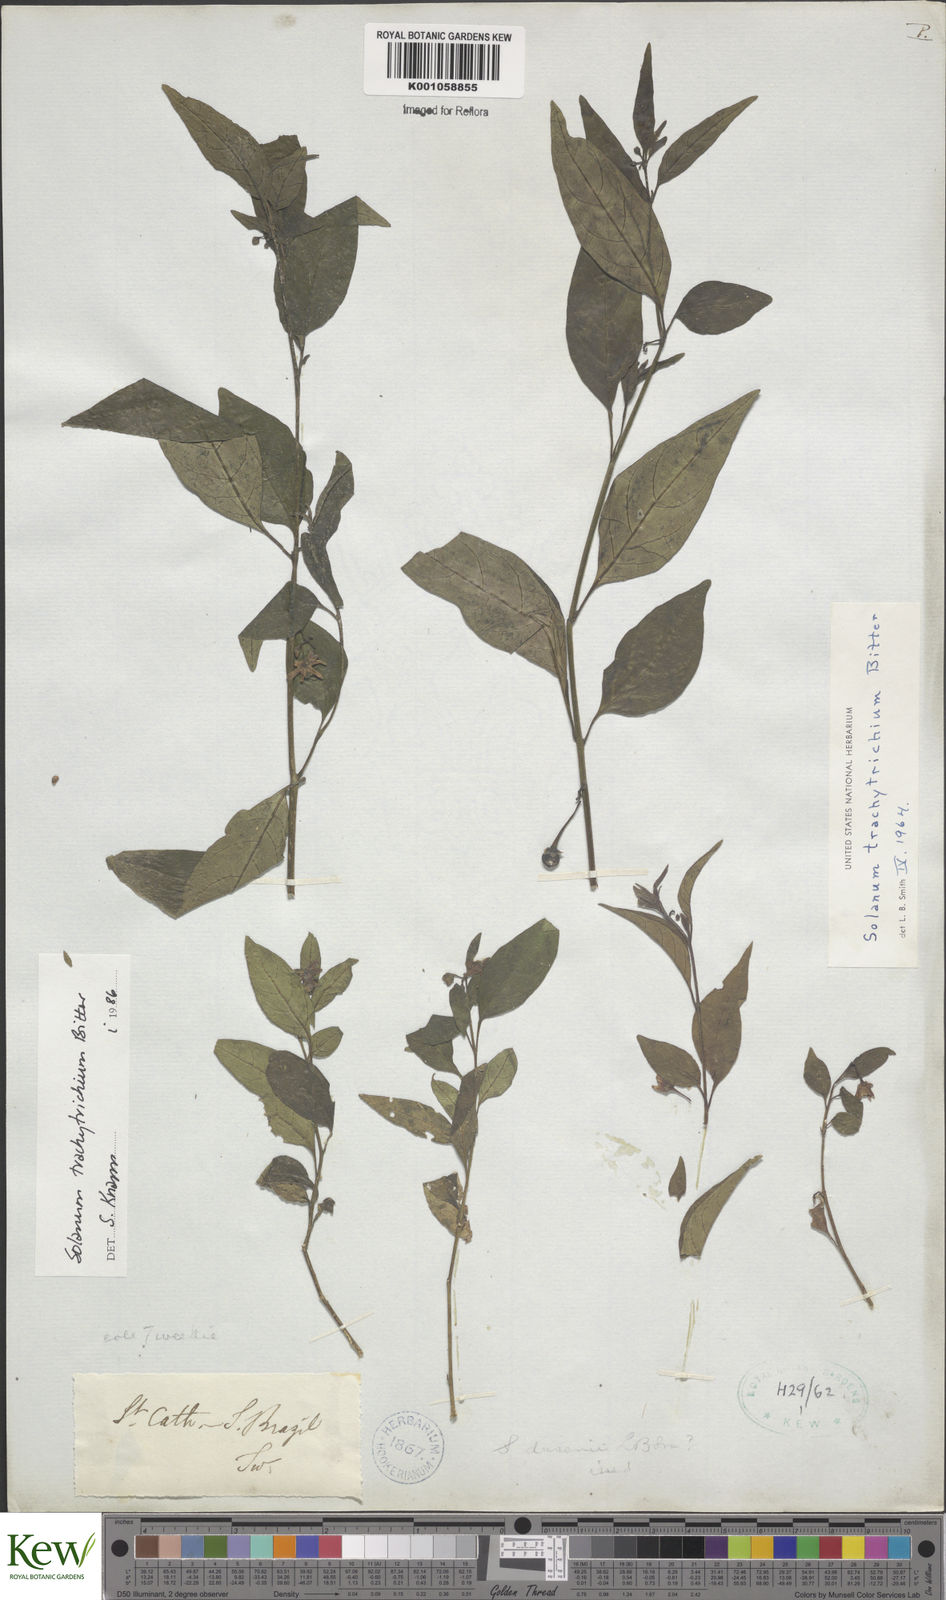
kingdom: Plantae
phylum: Tracheophyta
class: Magnoliopsida
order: Solanales
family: Solanaceae
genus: Solanum
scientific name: Solanum trachytrichium
